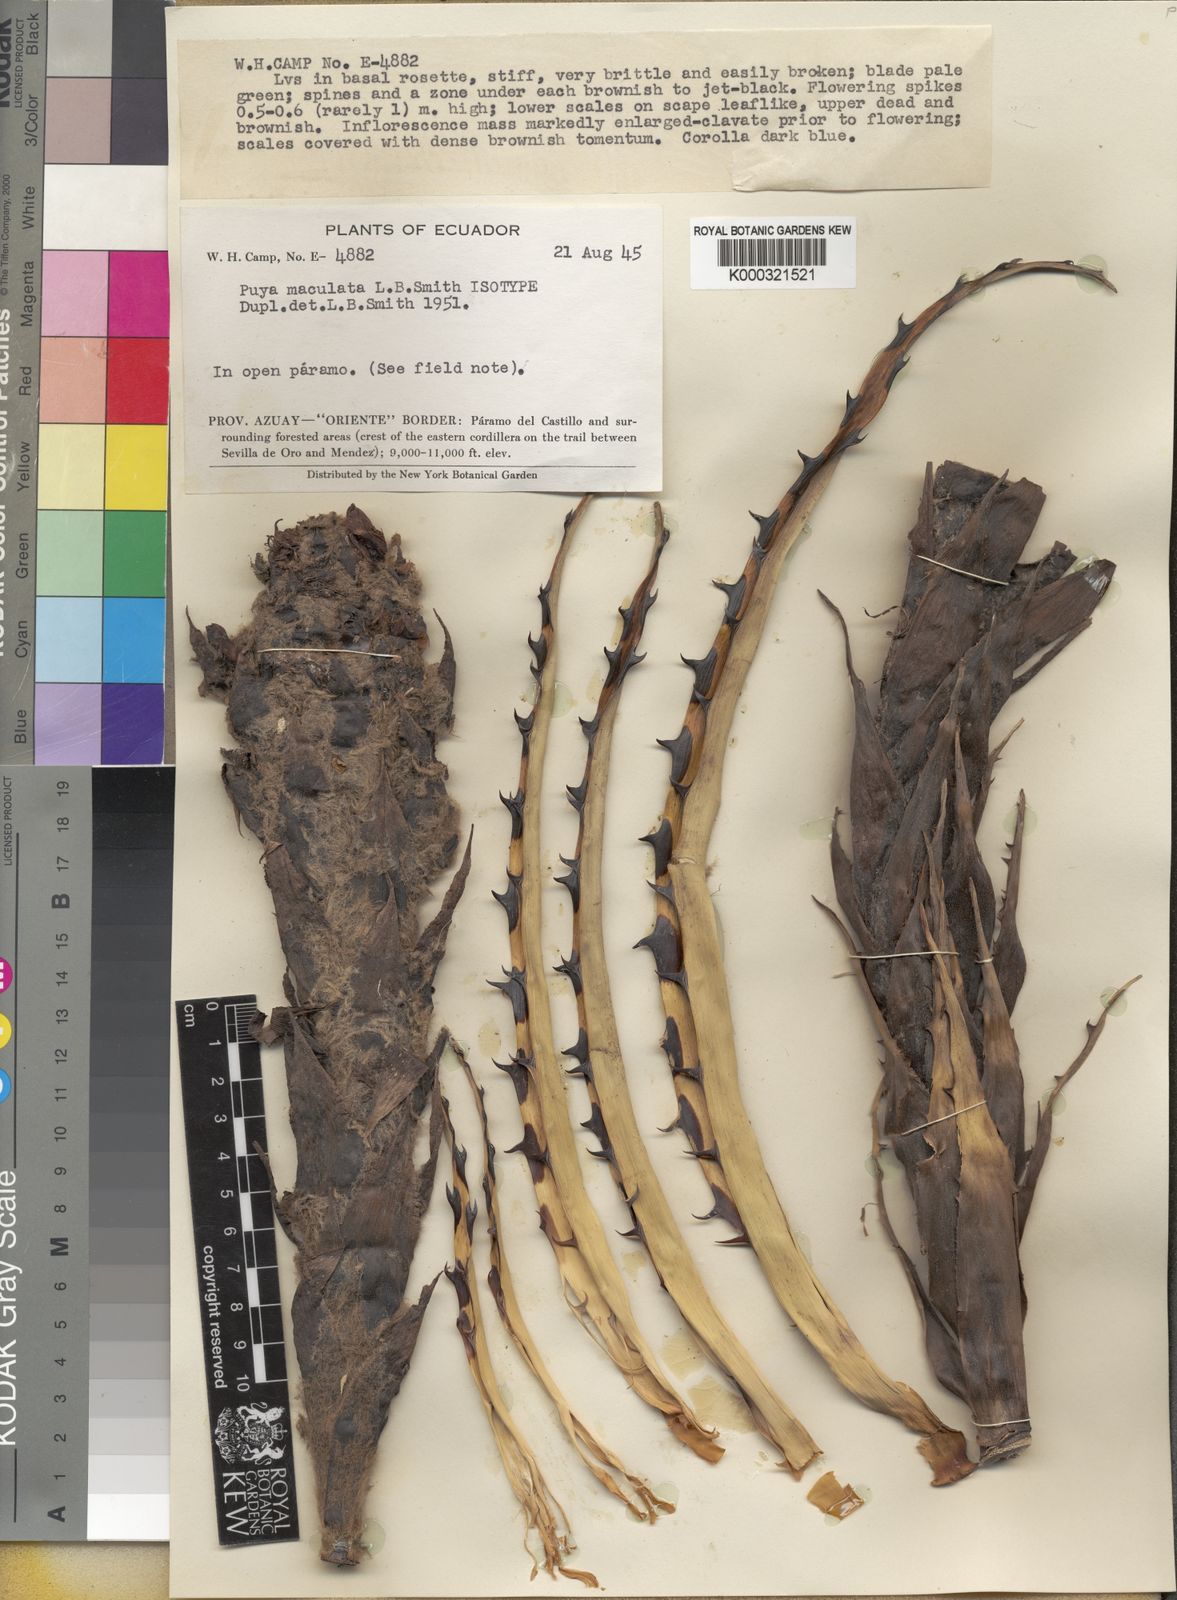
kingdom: Plantae
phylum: Tracheophyta
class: Liliopsida
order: Poales
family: Bromeliaceae
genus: Puya
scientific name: Puya maculata
